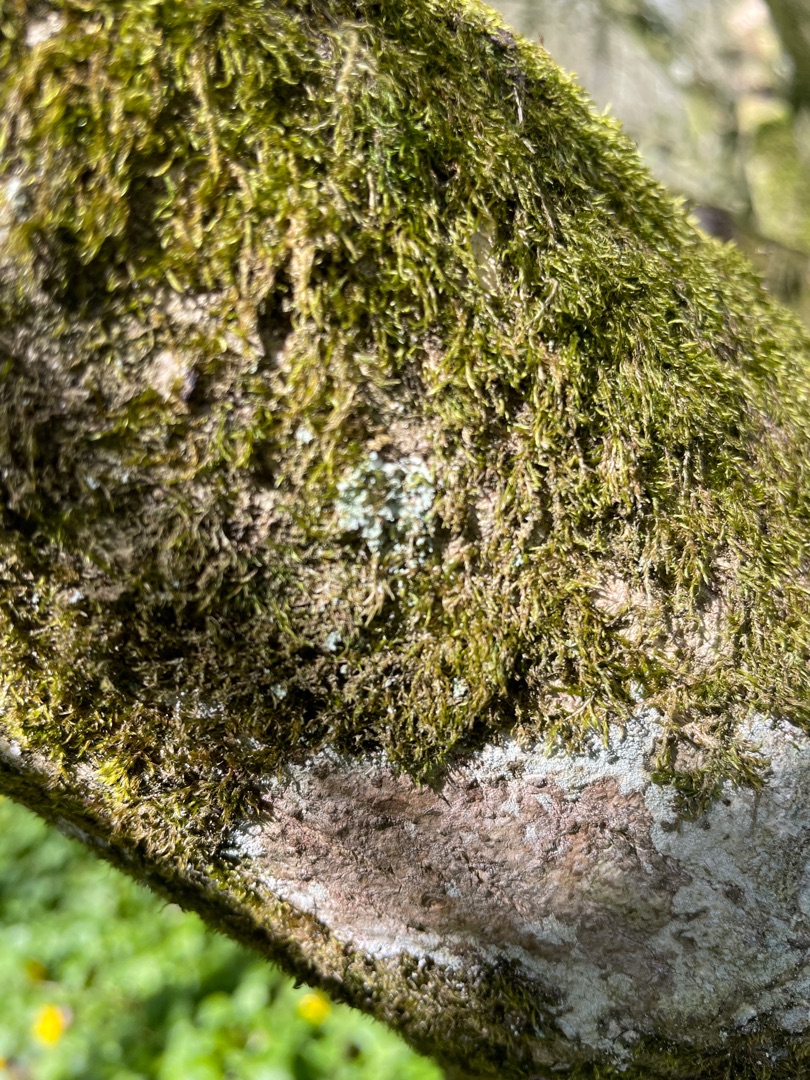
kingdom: Fungi
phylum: Ascomycota
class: Lecanoromycetes
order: Lecanorales
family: Cladoniaceae
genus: Cladonia
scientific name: Cladonia
